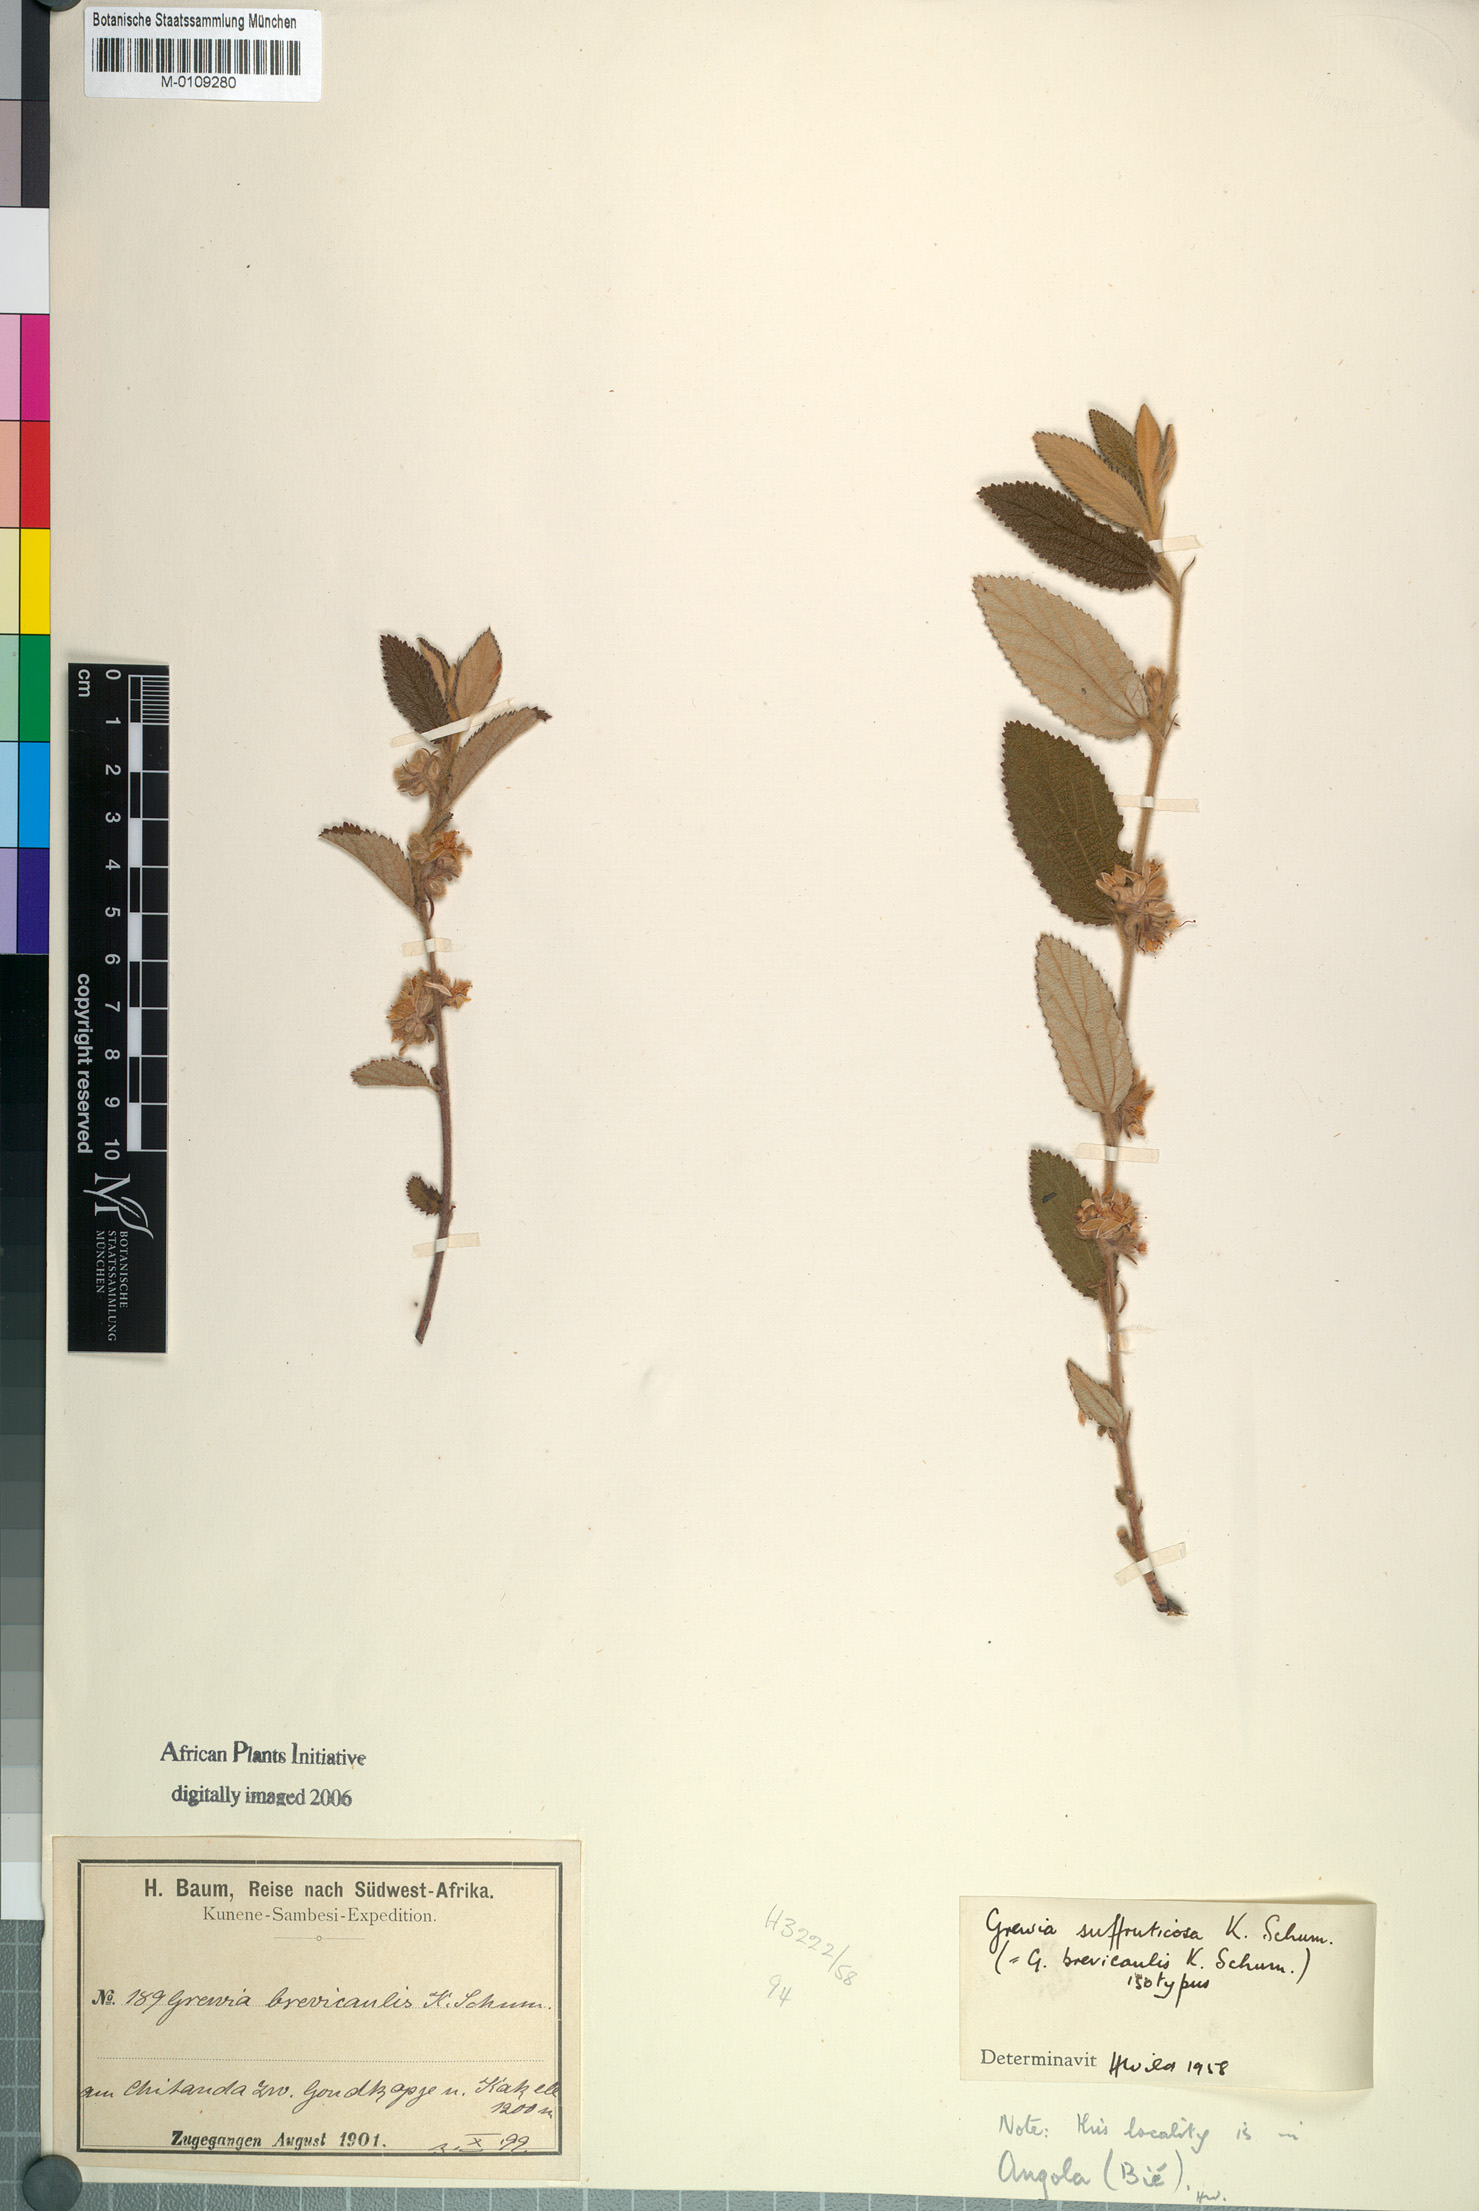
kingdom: Plantae
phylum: Tracheophyta
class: Magnoliopsida
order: Malvales
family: Malvaceae
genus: Grewia
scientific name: Grewia suffruticosa
